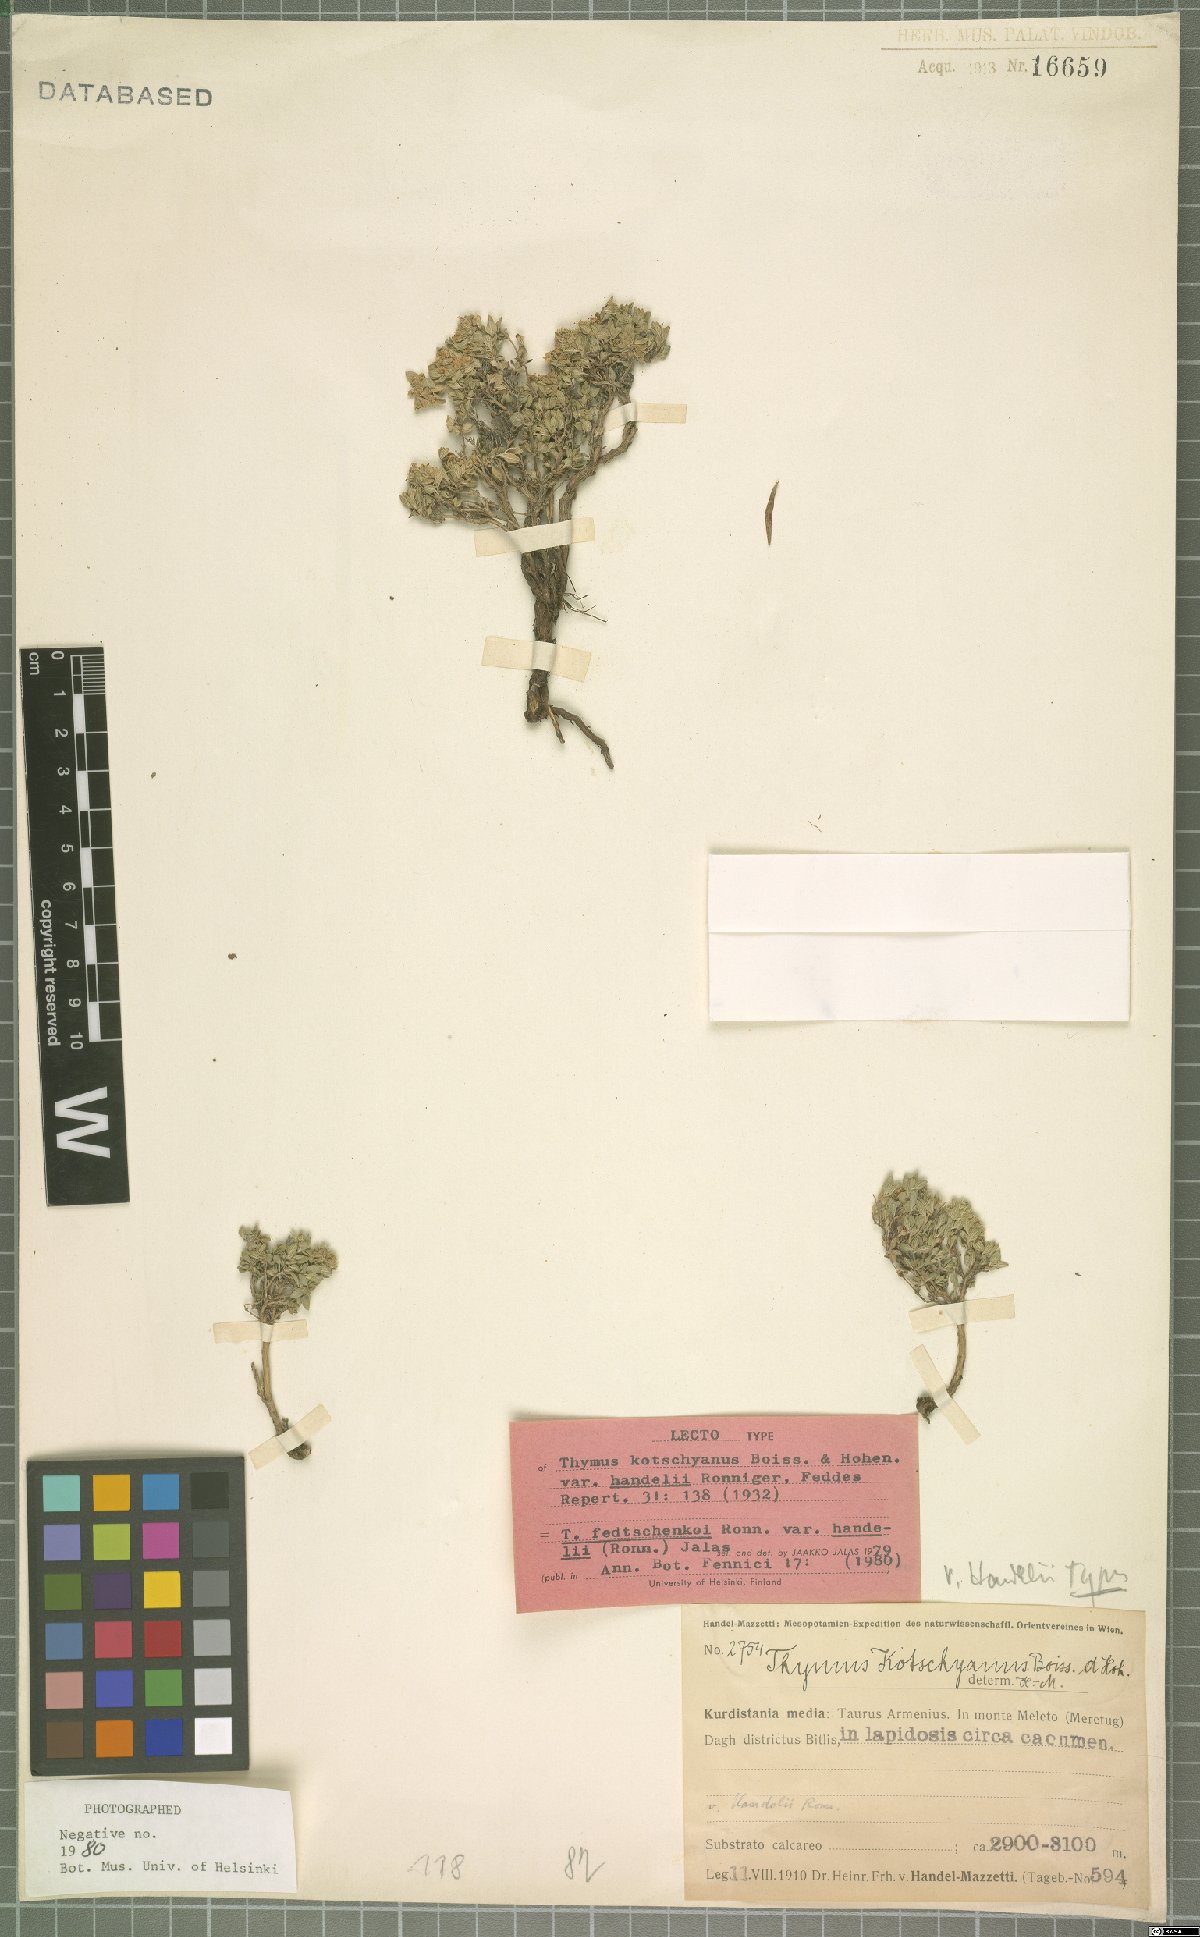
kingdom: Plantae
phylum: Tracheophyta
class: Magnoliopsida
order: Lamiales
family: Lamiaceae
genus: Thymus
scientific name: Thymus fedtschenkoi
